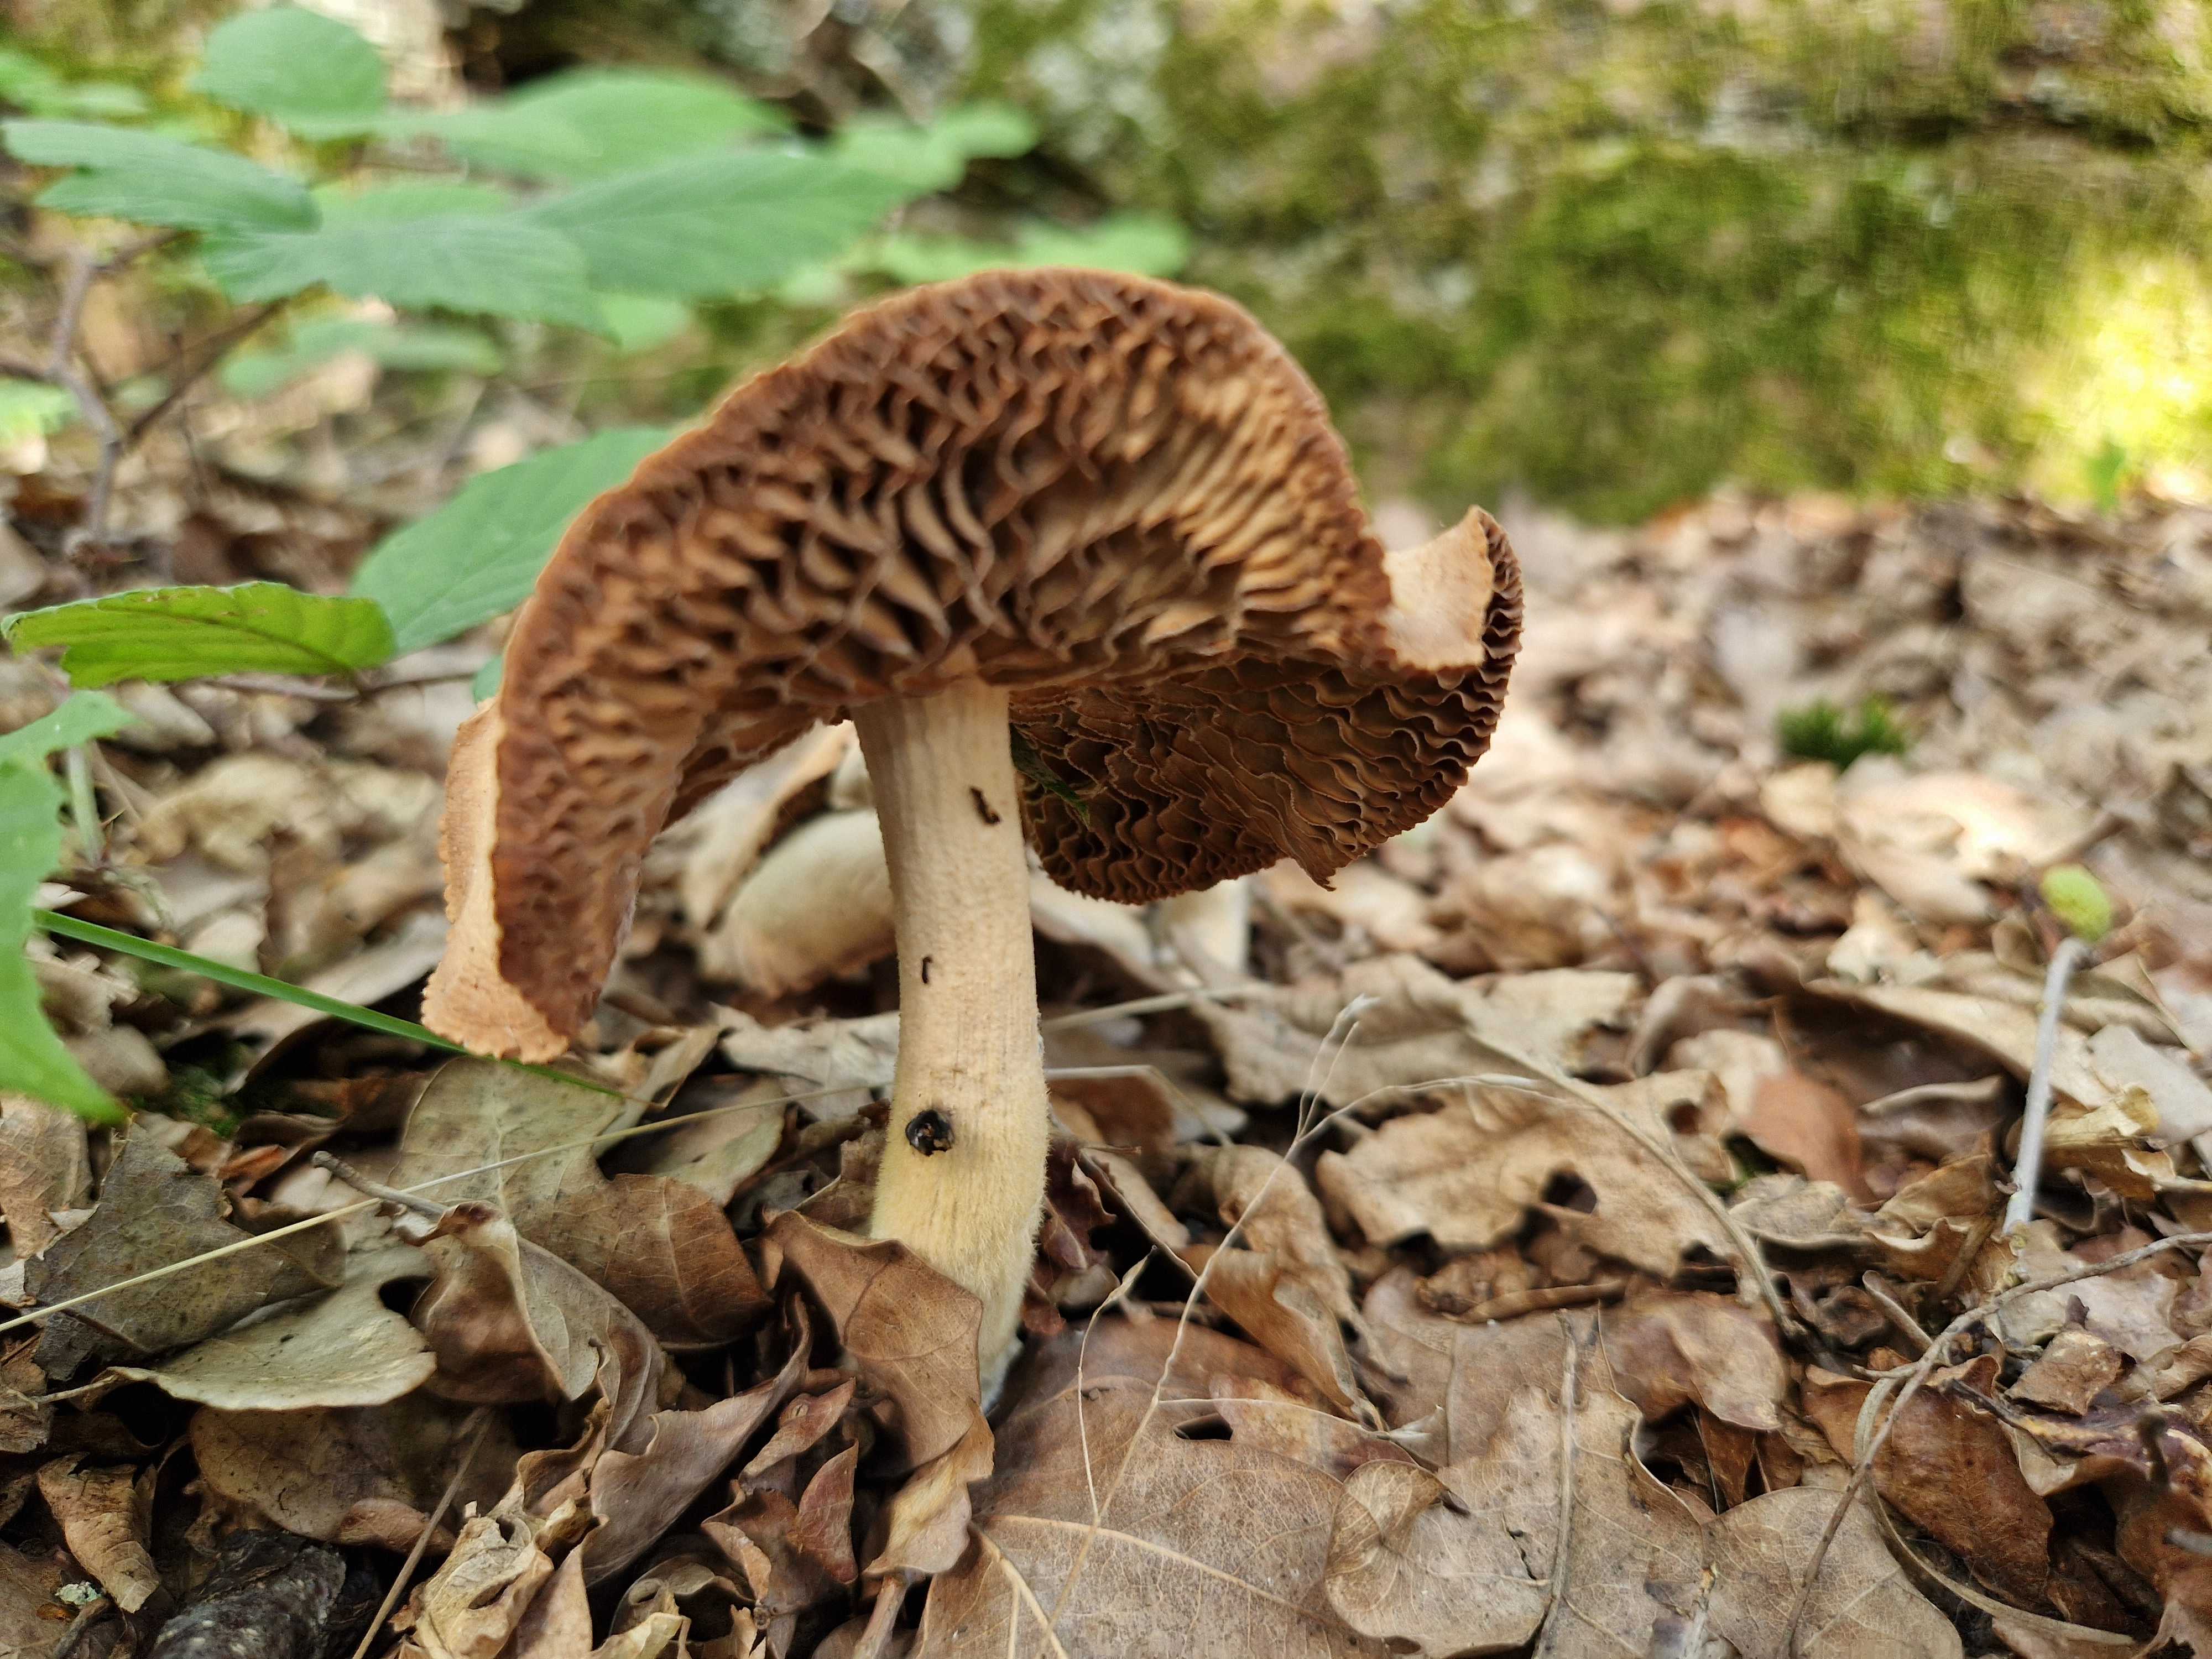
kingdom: Fungi
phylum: Basidiomycota
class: Agaricomycetes
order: Agaricales
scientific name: Agaricales
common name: champignonordenen
